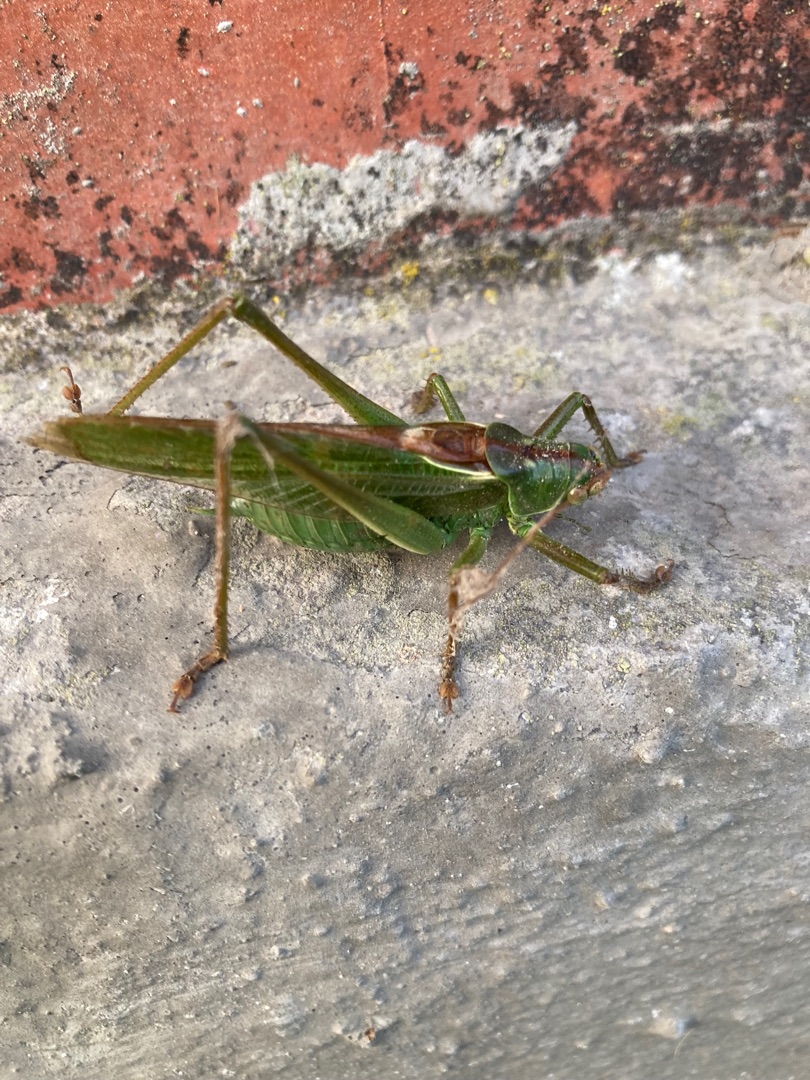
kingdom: Animalia
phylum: Arthropoda
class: Insecta
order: Orthoptera
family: Tettigoniidae
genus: Tettigonia
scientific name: Tettigonia viridissima
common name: Stor grøn løvgræshoppe
